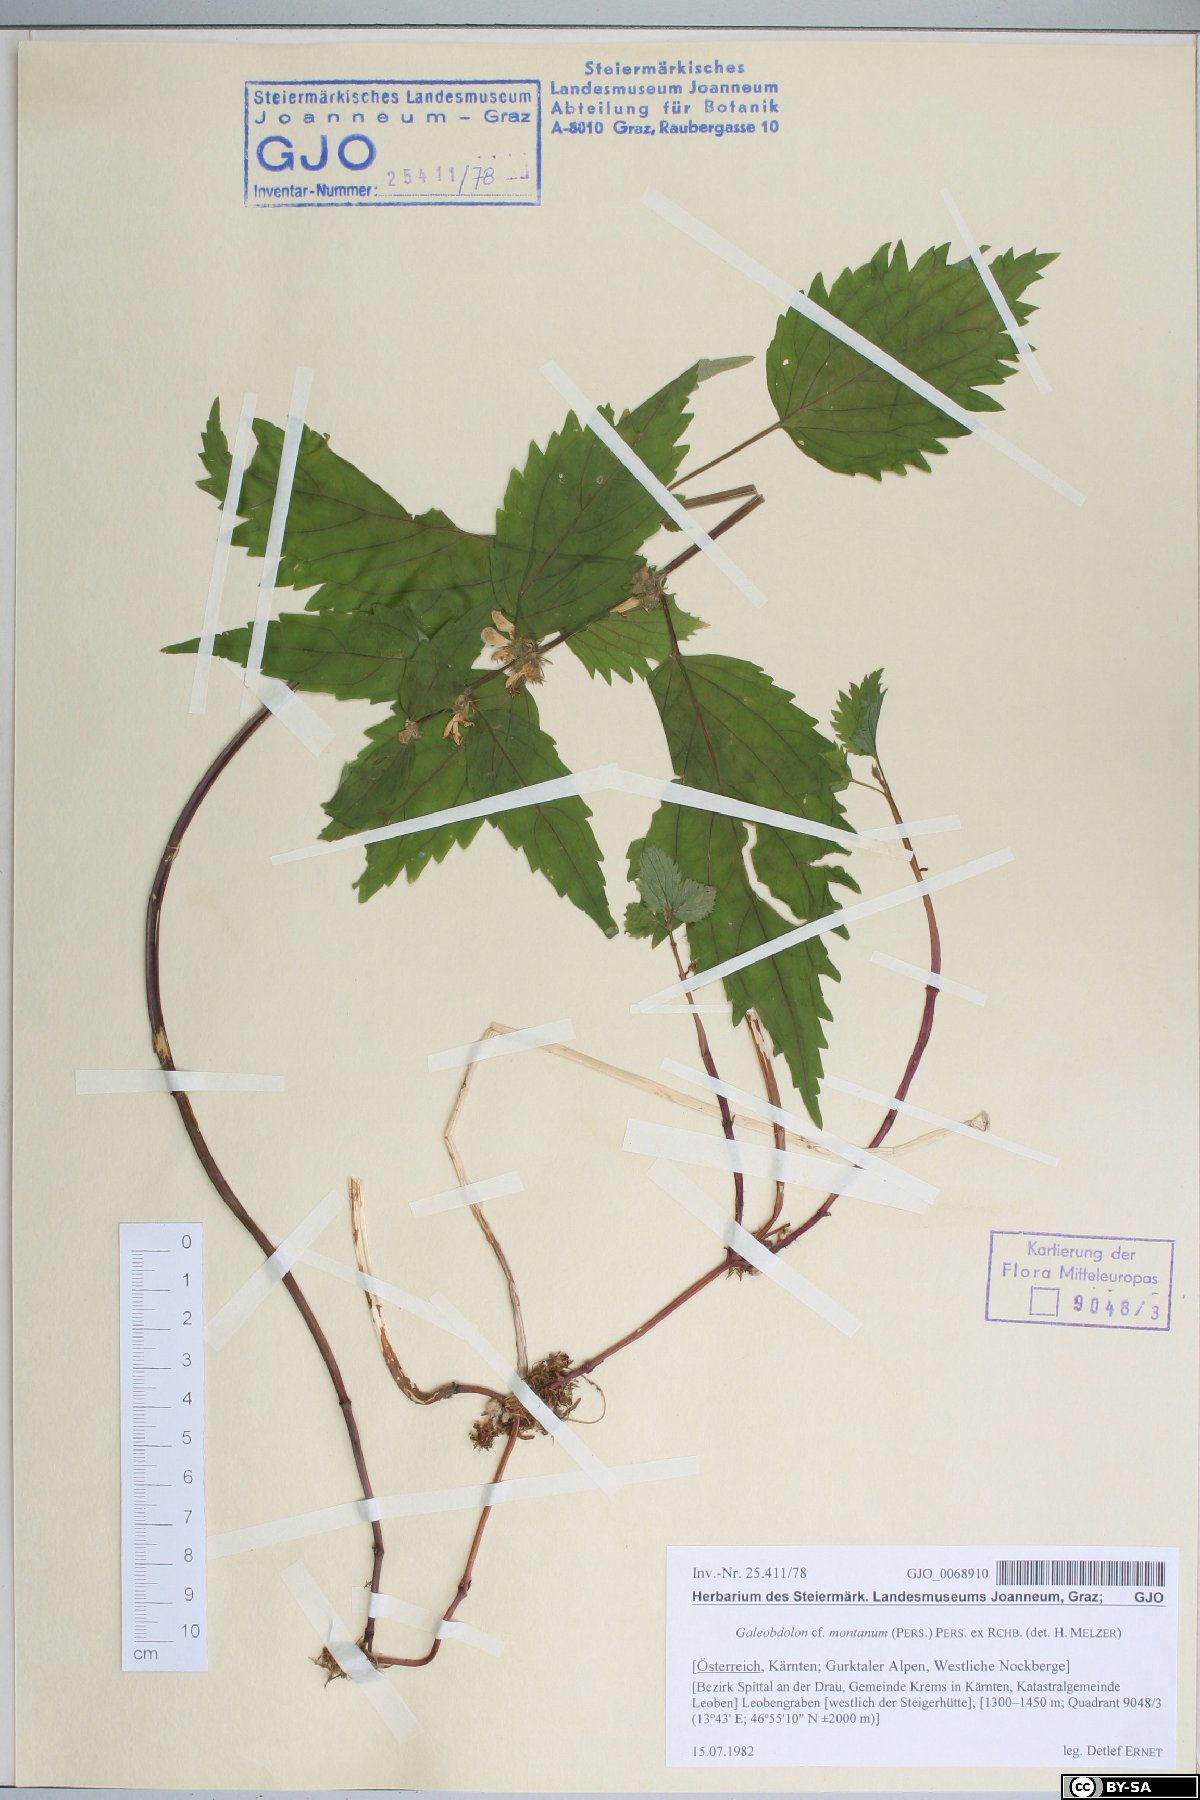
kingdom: Plantae
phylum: Tracheophyta
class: Magnoliopsida
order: Lamiales
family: Lamiaceae
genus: Lamium
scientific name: Lamium galeobdolon
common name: Yellow archangel
